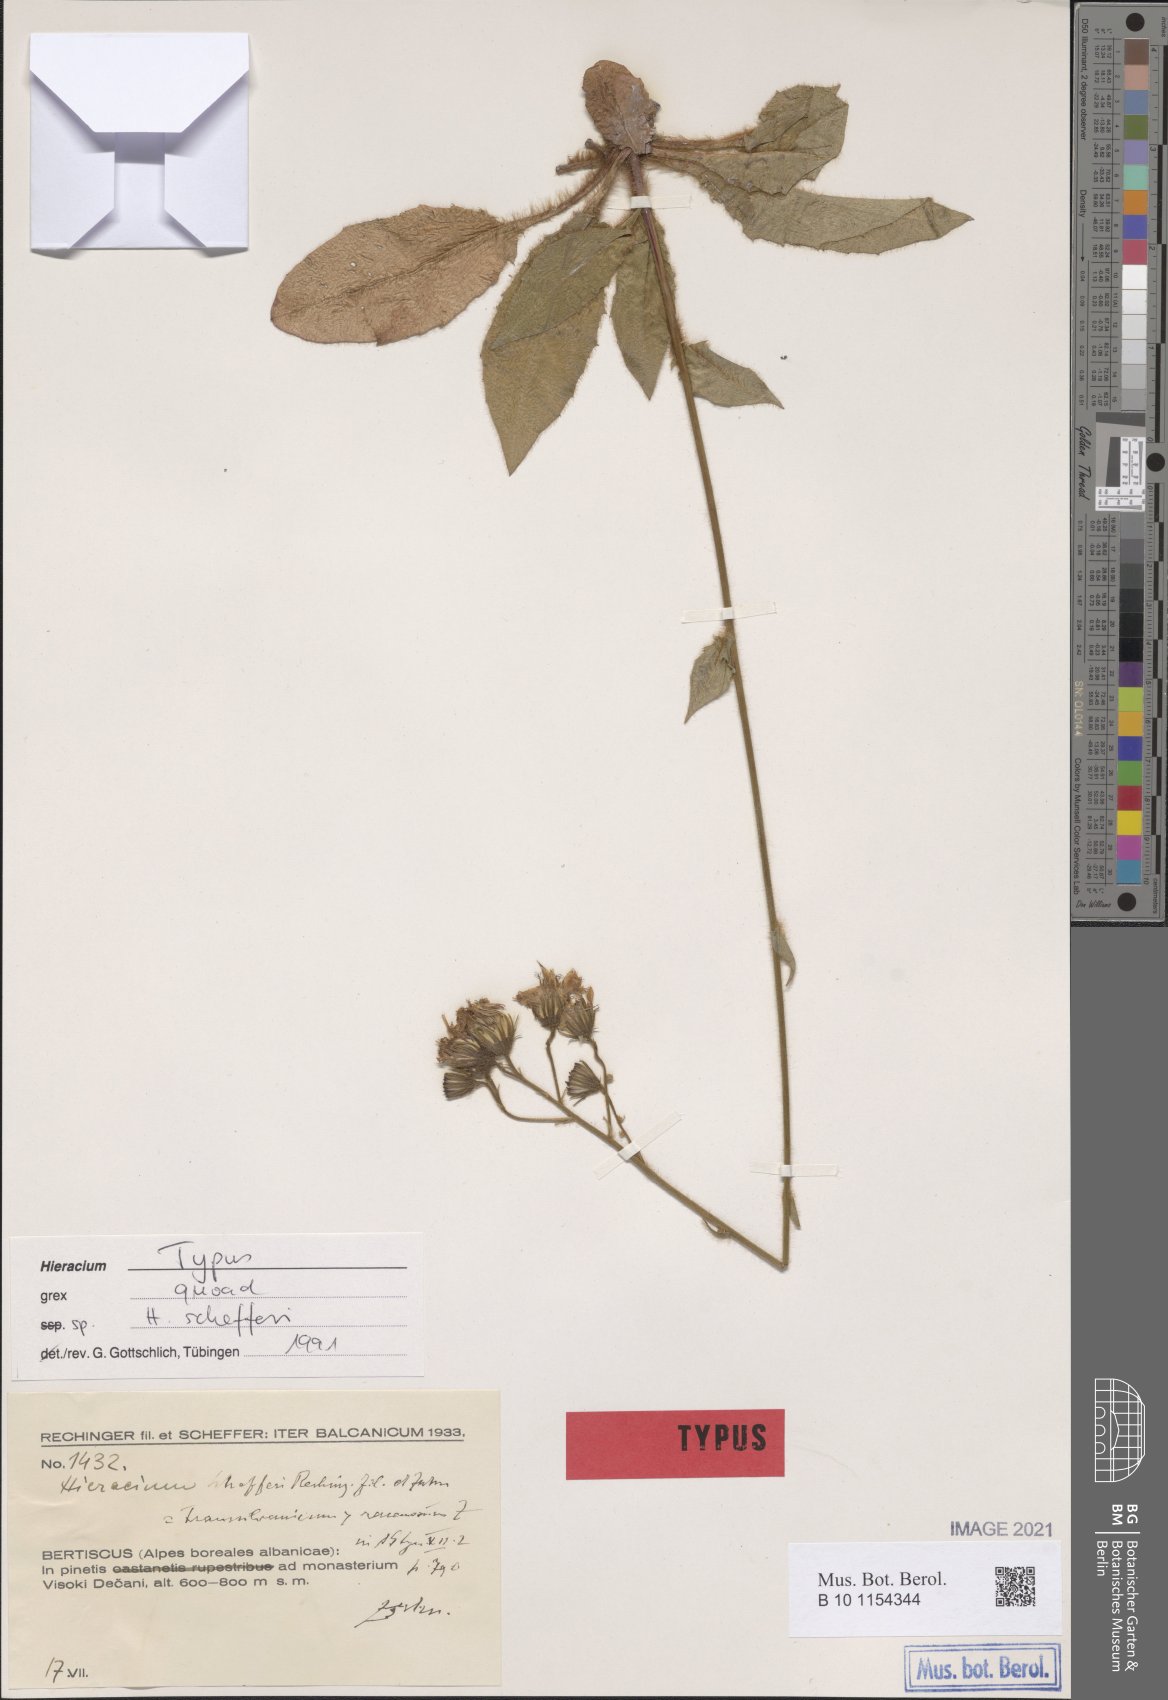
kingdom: Plantae
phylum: Tracheophyta
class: Magnoliopsida
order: Asterales
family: Asteraceae
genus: Hieracium
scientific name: Hieracium schefferi
